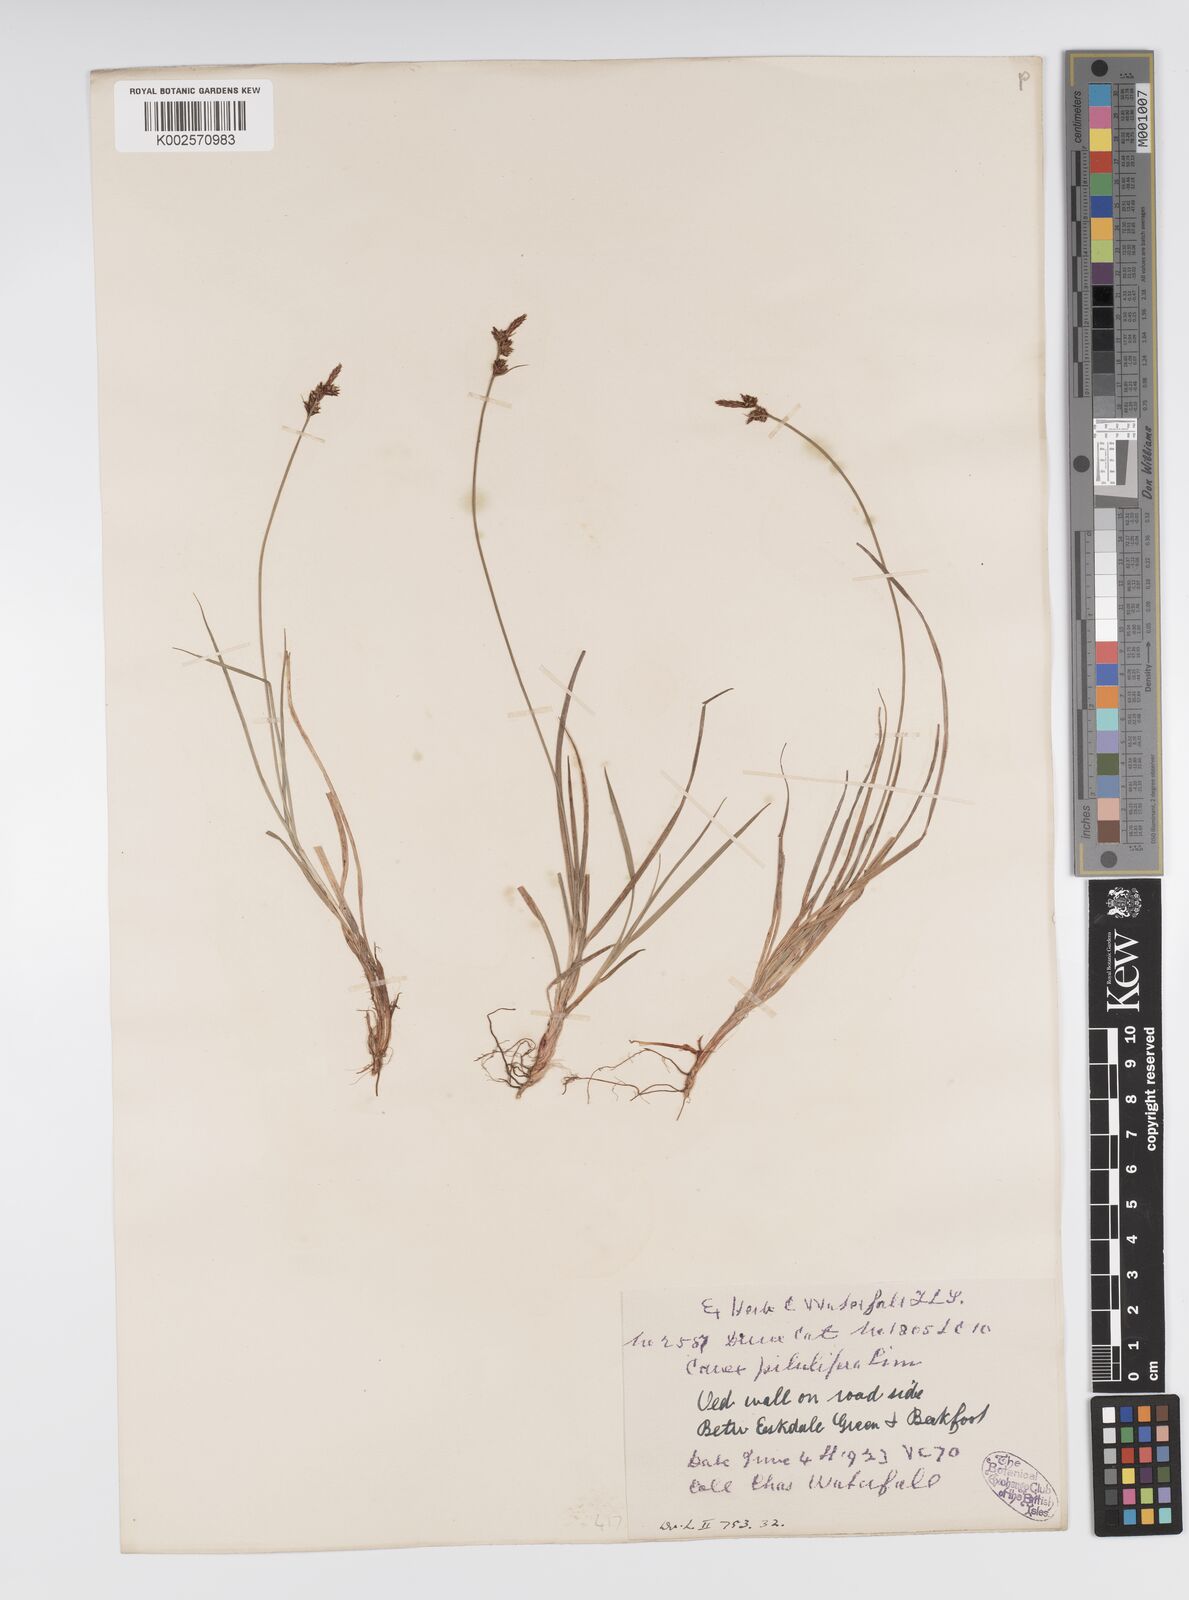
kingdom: Plantae
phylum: Tracheophyta
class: Liliopsida
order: Poales
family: Cyperaceae
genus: Carex
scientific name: Carex pilulifera
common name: Pill sedge
